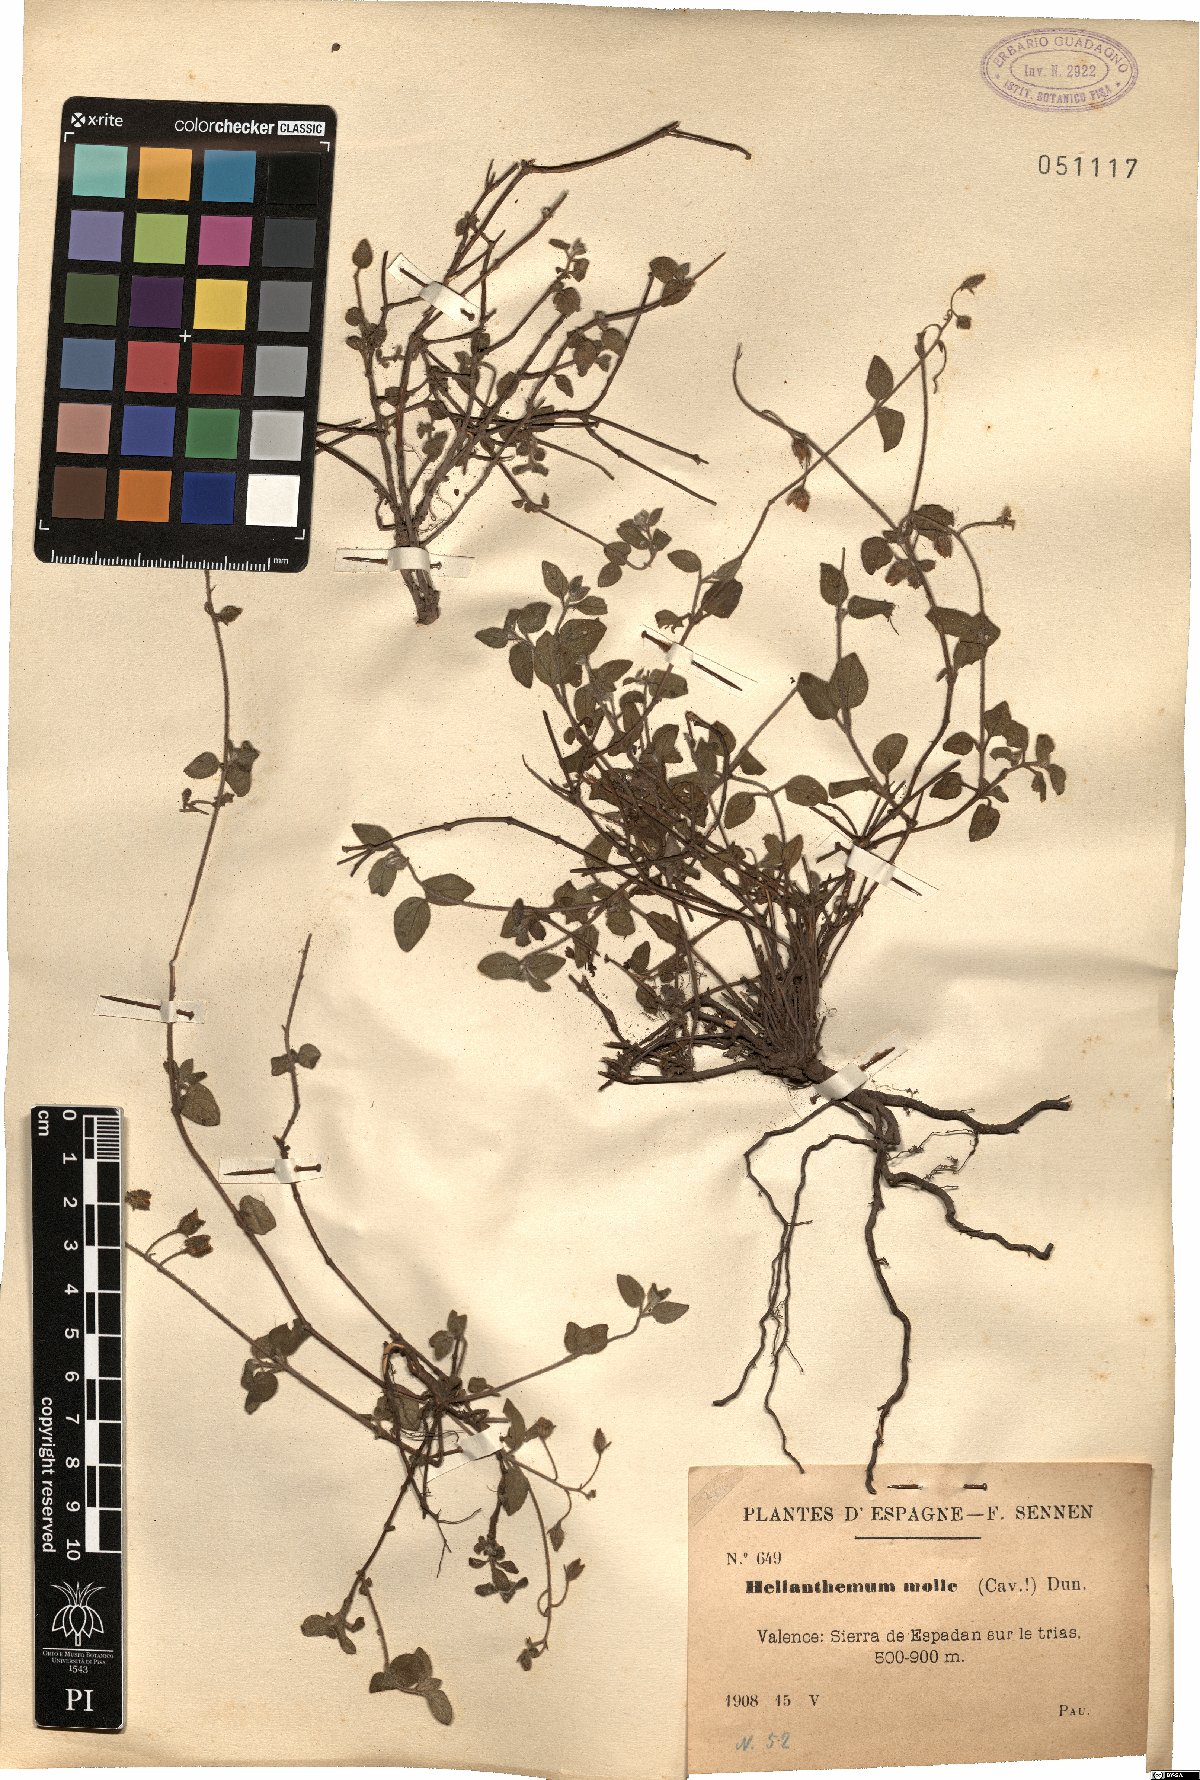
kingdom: Plantae
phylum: Tracheophyta
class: Magnoliopsida
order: Malvales
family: Cistaceae
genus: Helianthemum
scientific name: Helianthemum origanifolium
